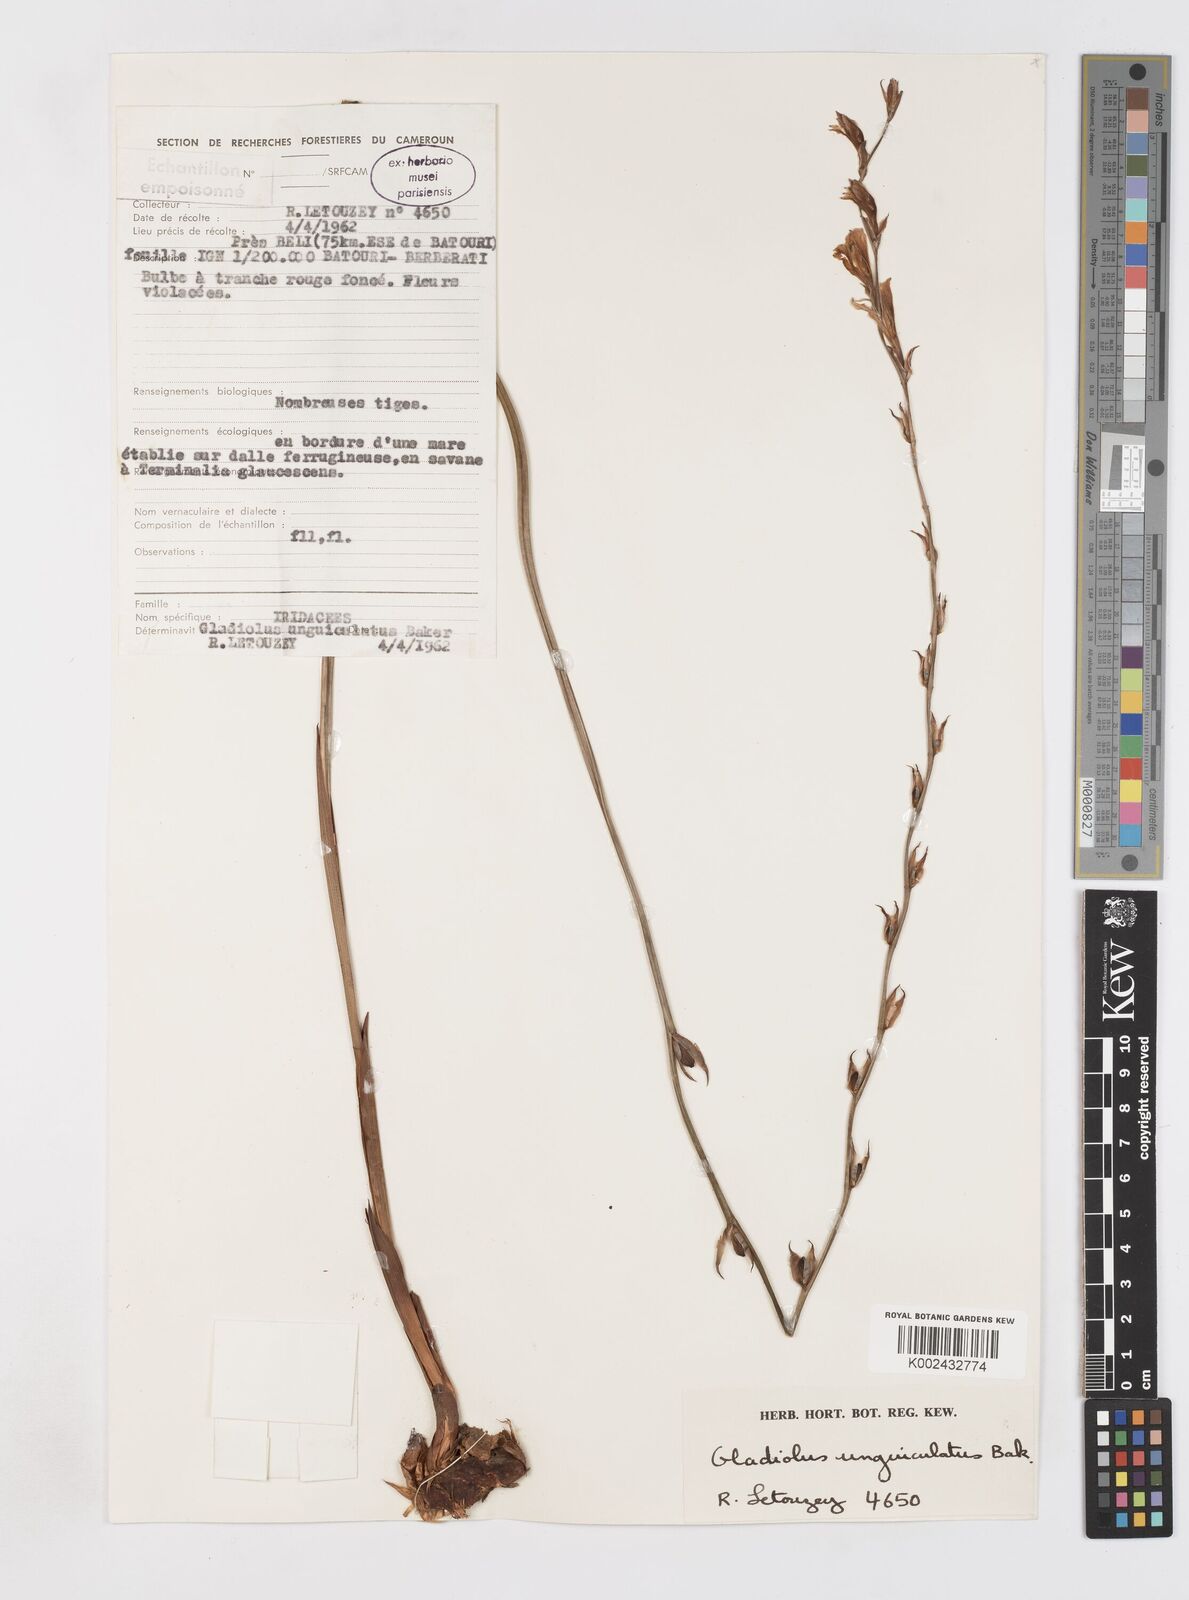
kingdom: Plantae
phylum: Tracheophyta
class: Liliopsida
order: Asparagales
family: Iridaceae
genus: Gladiolus
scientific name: Gladiolus unguiculatus
